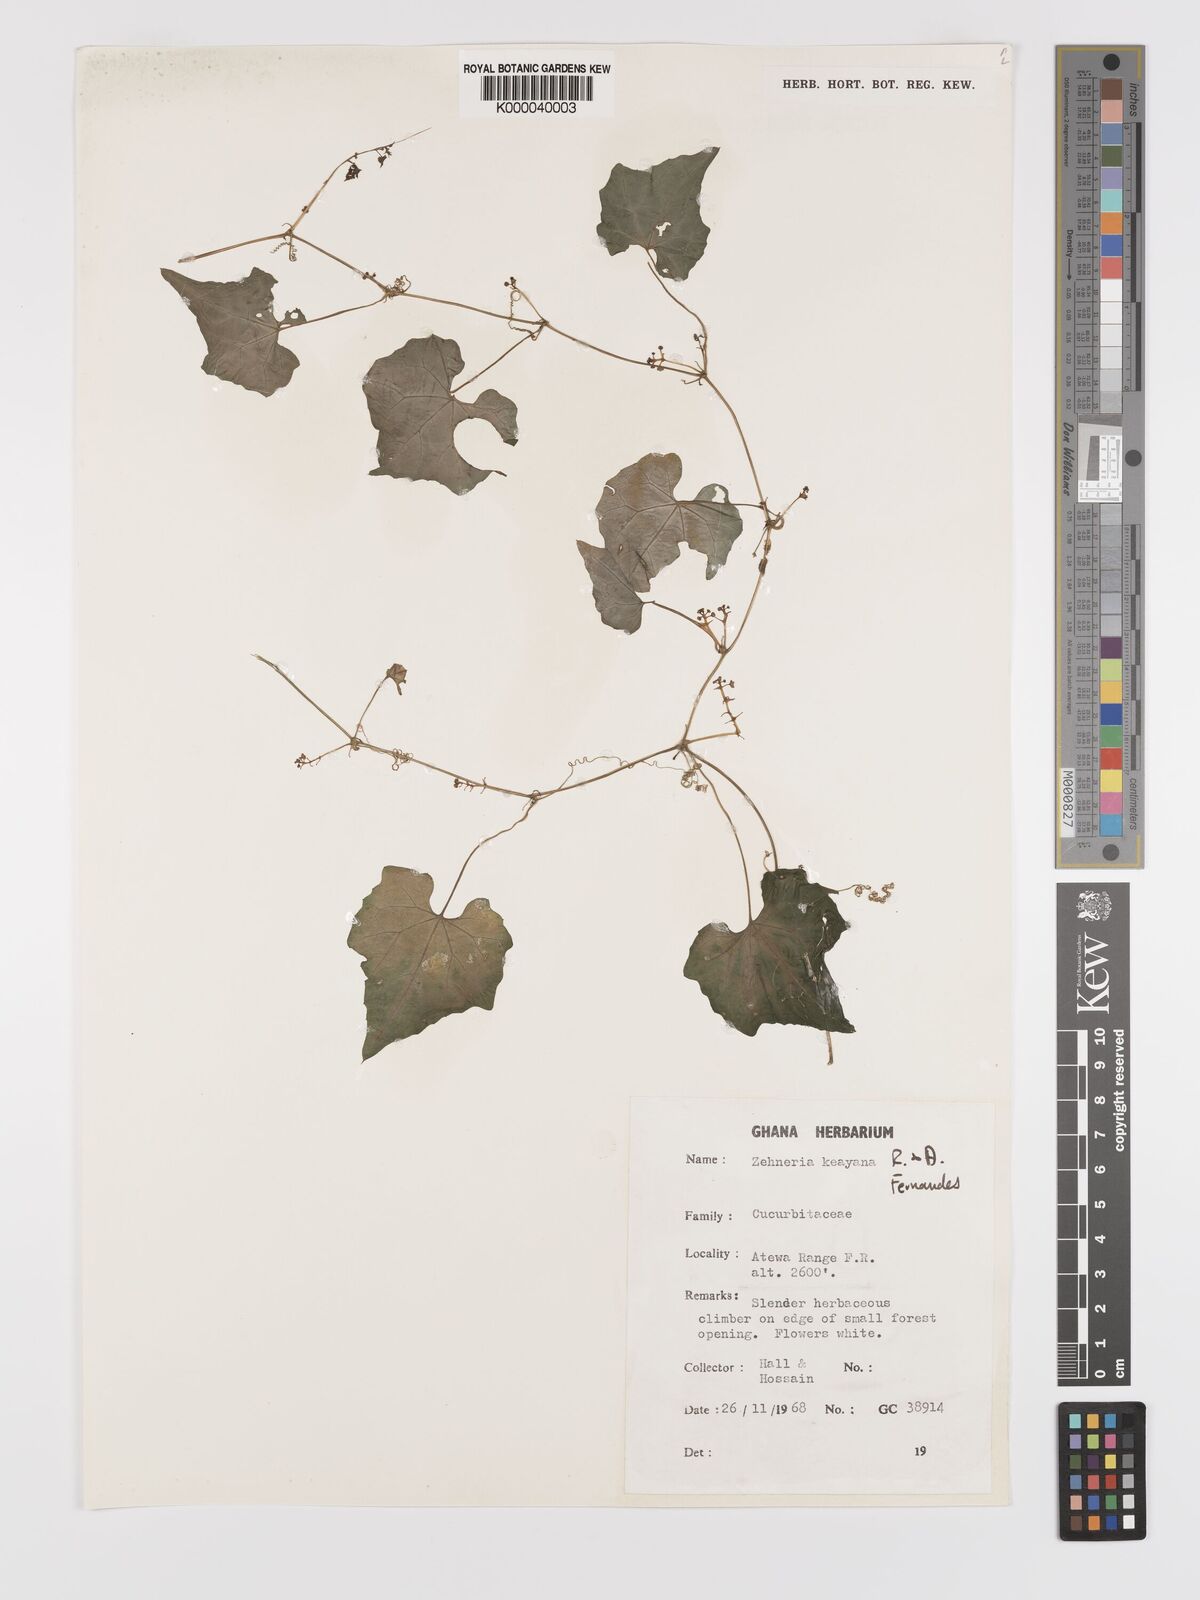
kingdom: Plantae
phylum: Tracheophyta
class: Magnoliopsida
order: Cucurbitales
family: Cucurbitaceae
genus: Zehneria
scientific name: Zehneria keayana
